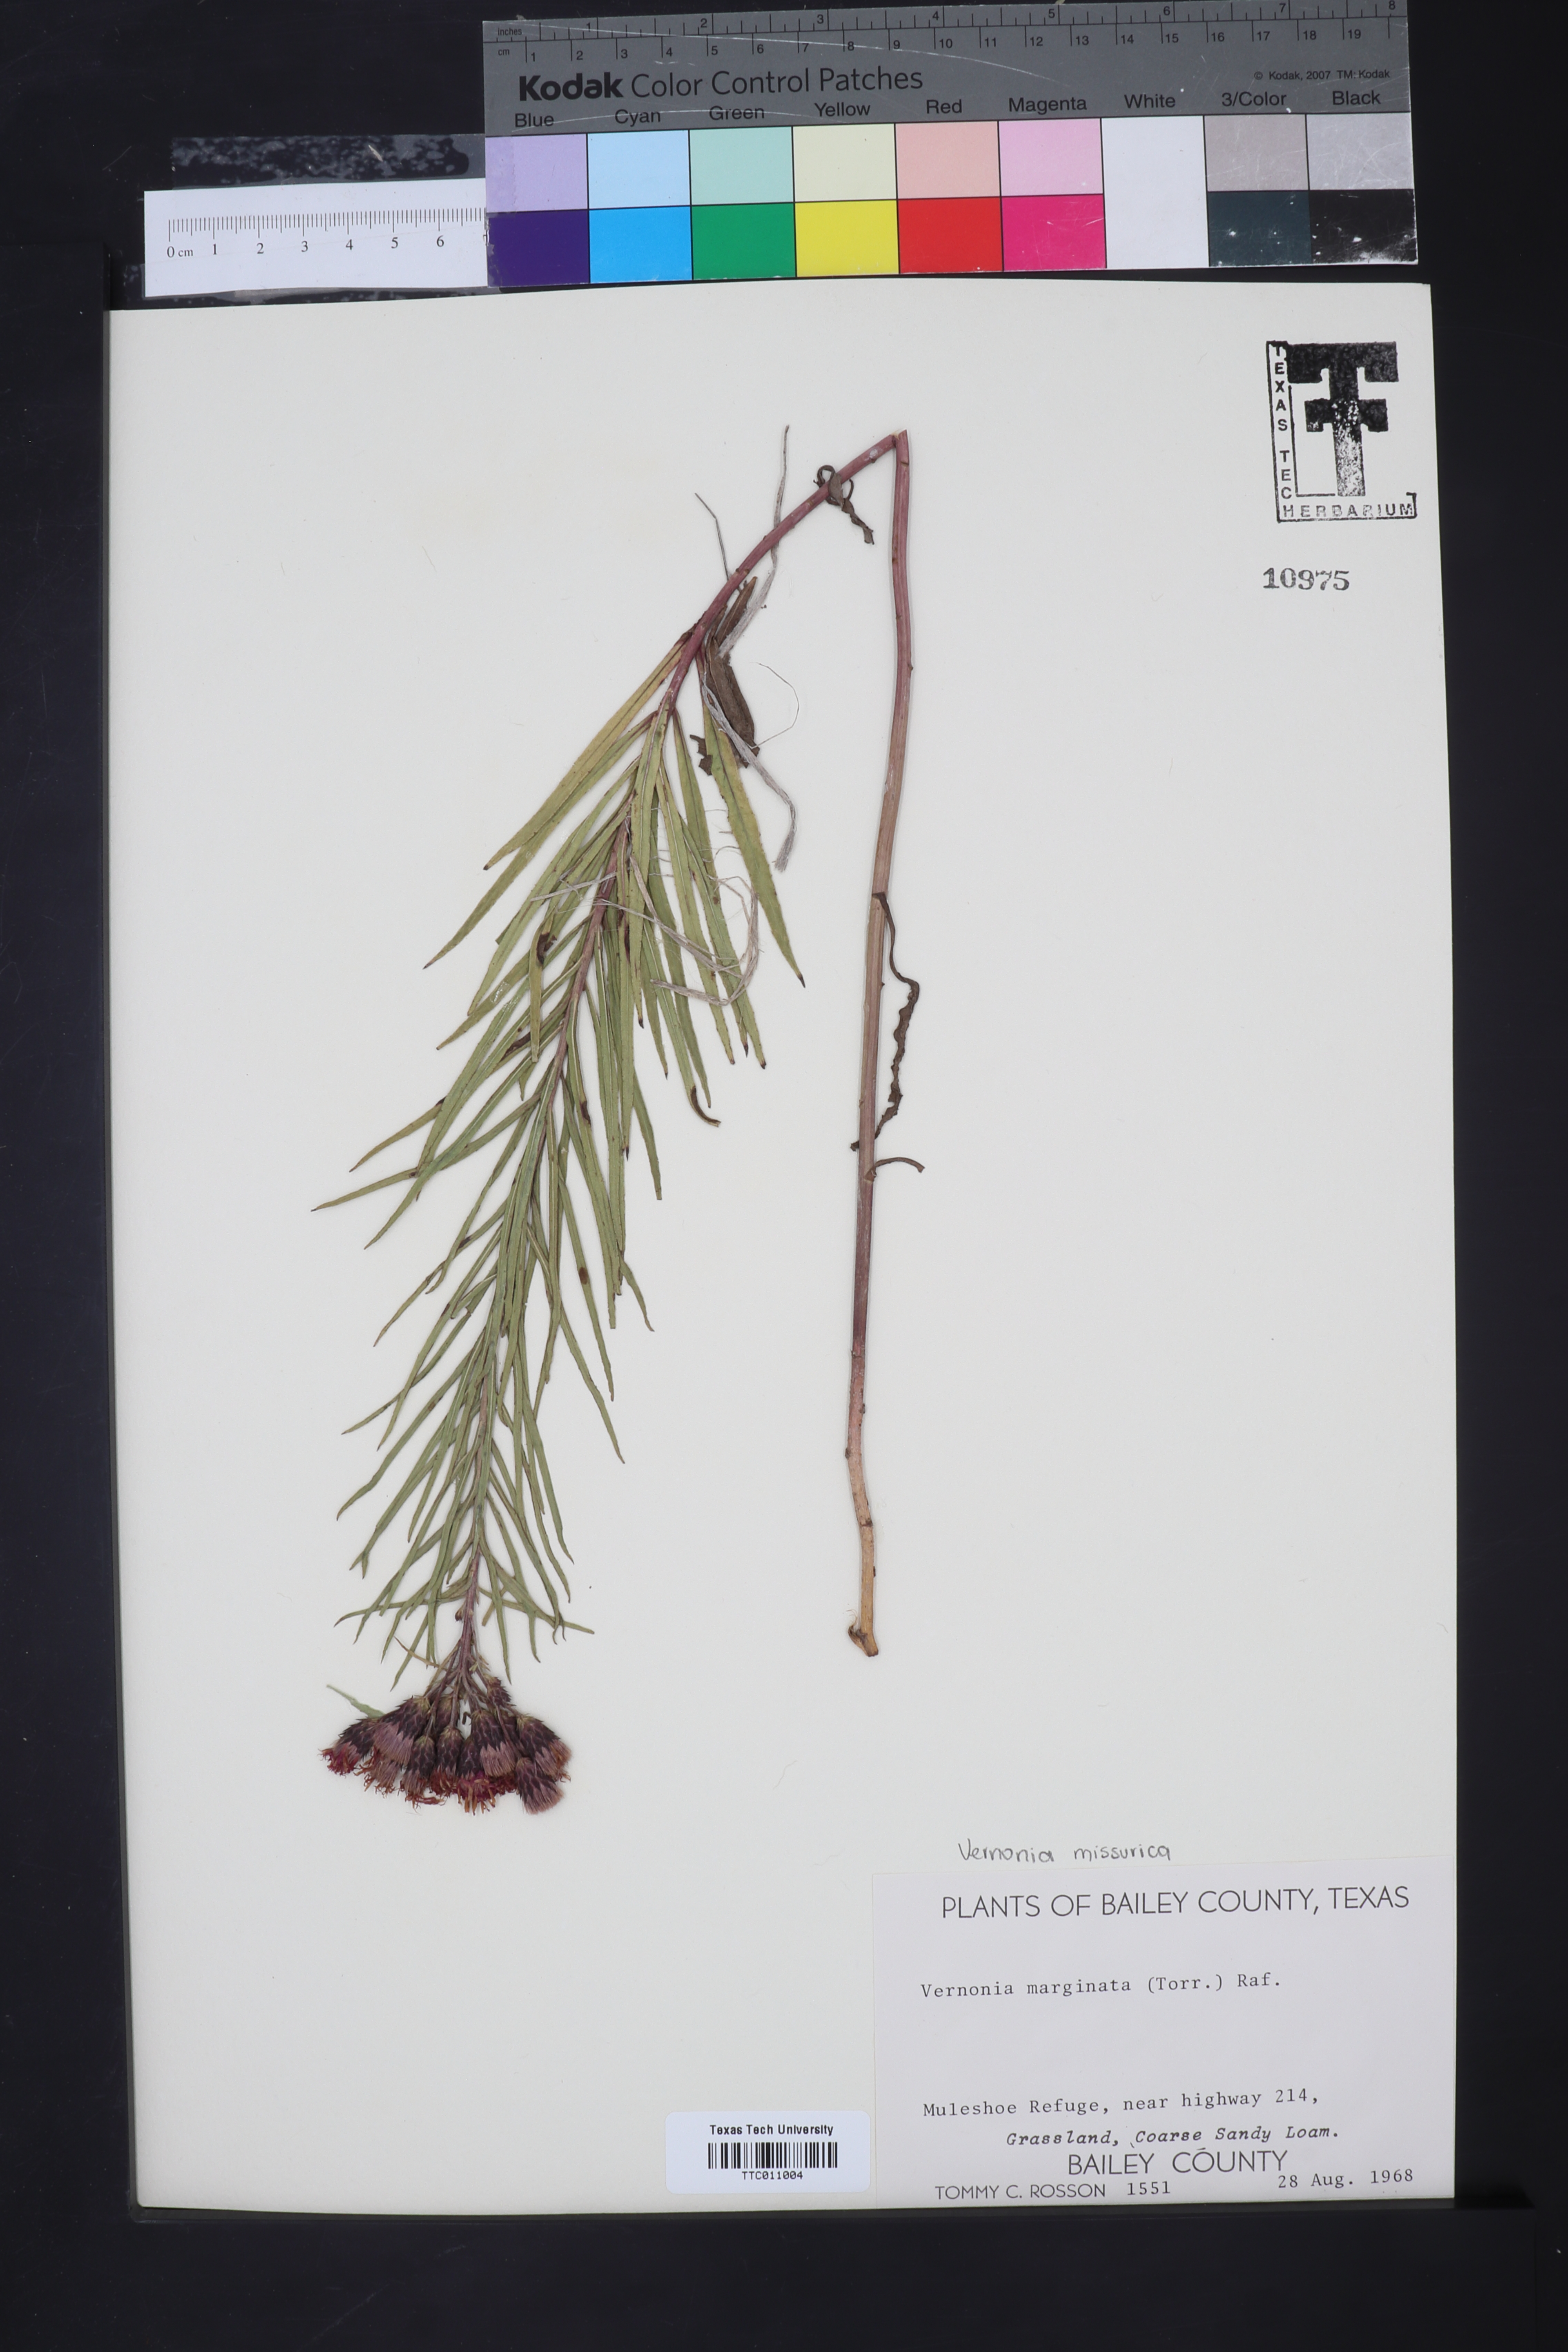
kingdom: Plantae
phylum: Tracheophyta
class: Magnoliopsida
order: Asterales
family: Asteraceae
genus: Vernonia
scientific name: Vernonia marginata
